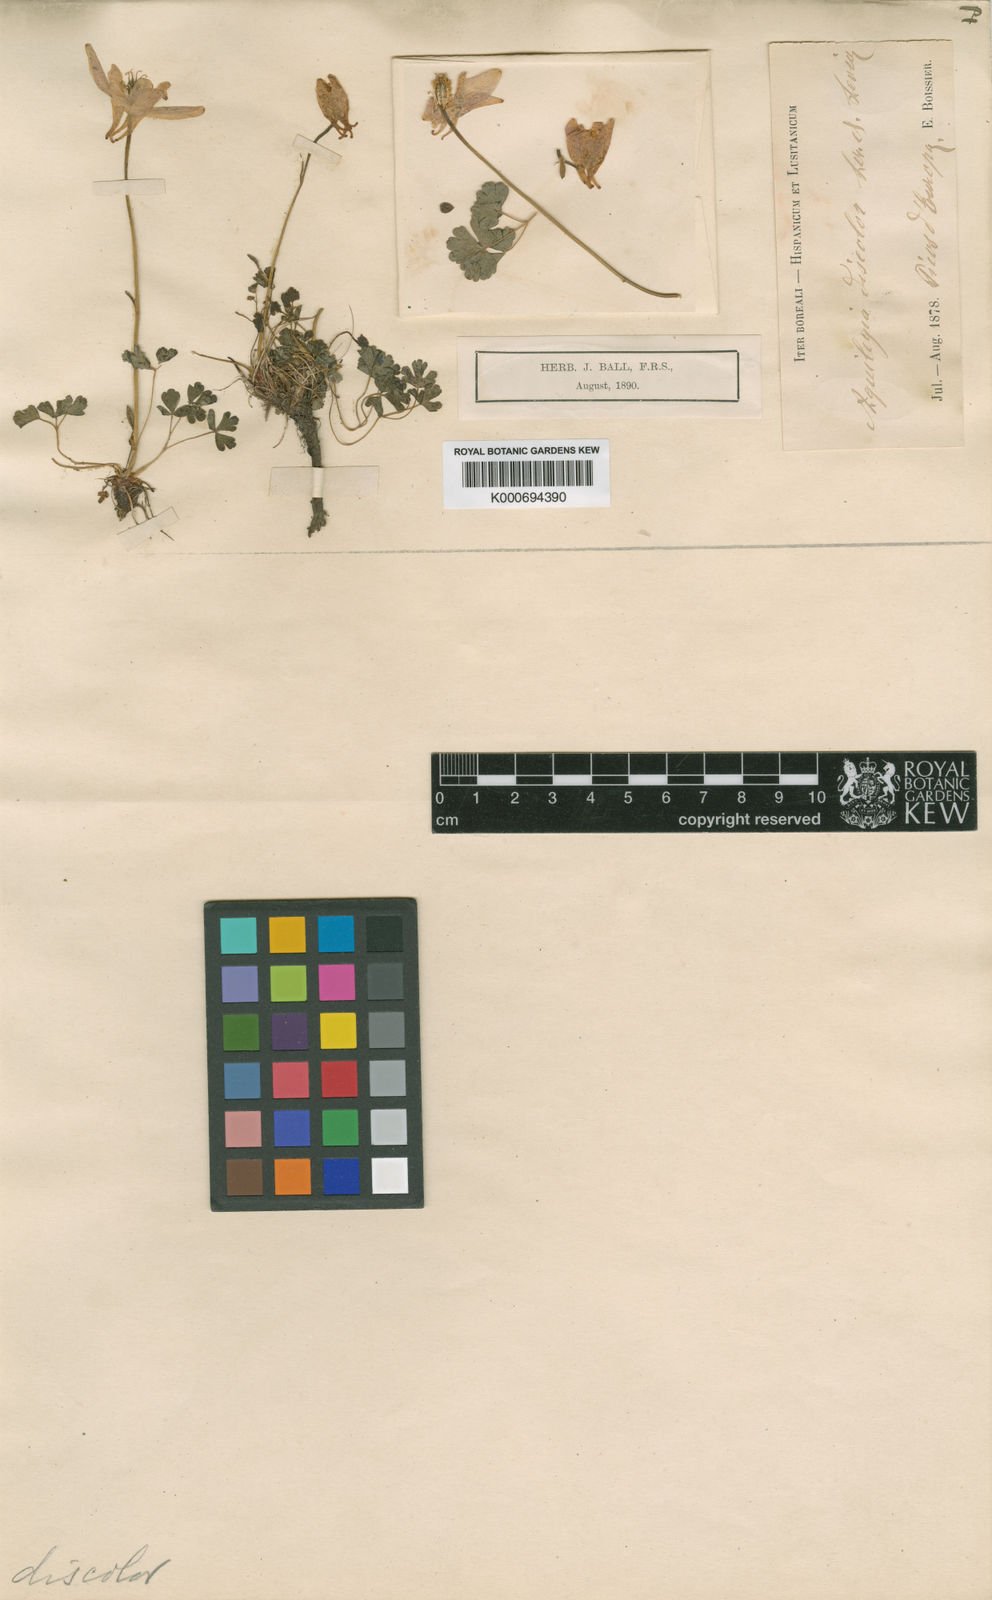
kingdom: Plantae
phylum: Tracheophyta
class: Magnoliopsida
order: Ranunculales
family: Ranunculaceae
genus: Aquilegia
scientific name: Aquilegia pyrenaica
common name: Pyrenean columbine
